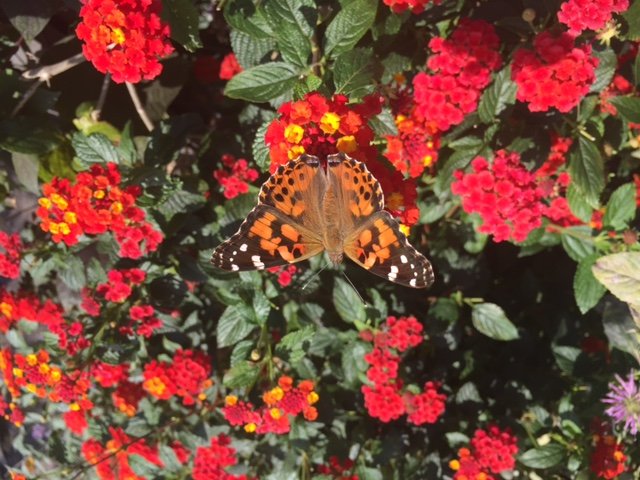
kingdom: Animalia
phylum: Arthropoda
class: Insecta
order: Lepidoptera
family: Nymphalidae
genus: Vanessa
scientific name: Vanessa cardui
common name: Painted Lady
